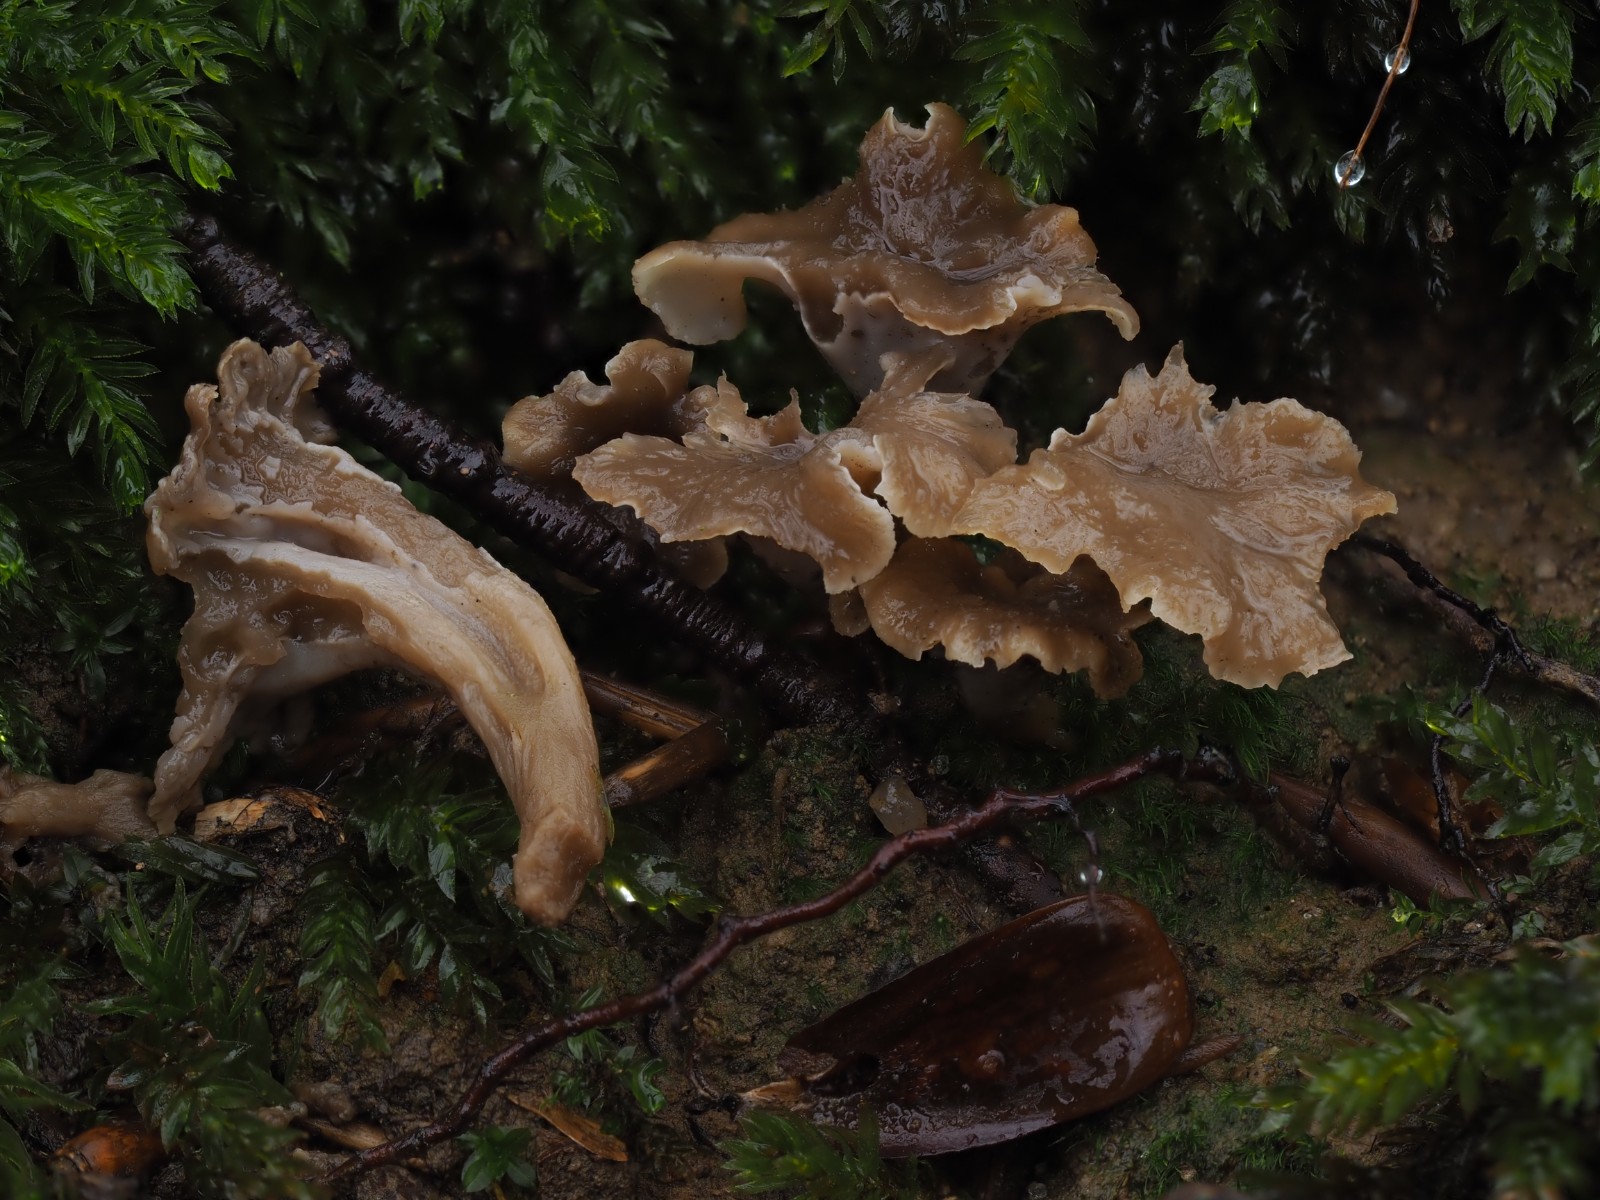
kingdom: Fungi
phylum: Basidiomycota
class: Agaricomycetes
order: Cantharellales
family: Hydnaceae
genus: Craterellus
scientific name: Craterellus undulatus
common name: liden kantarel
